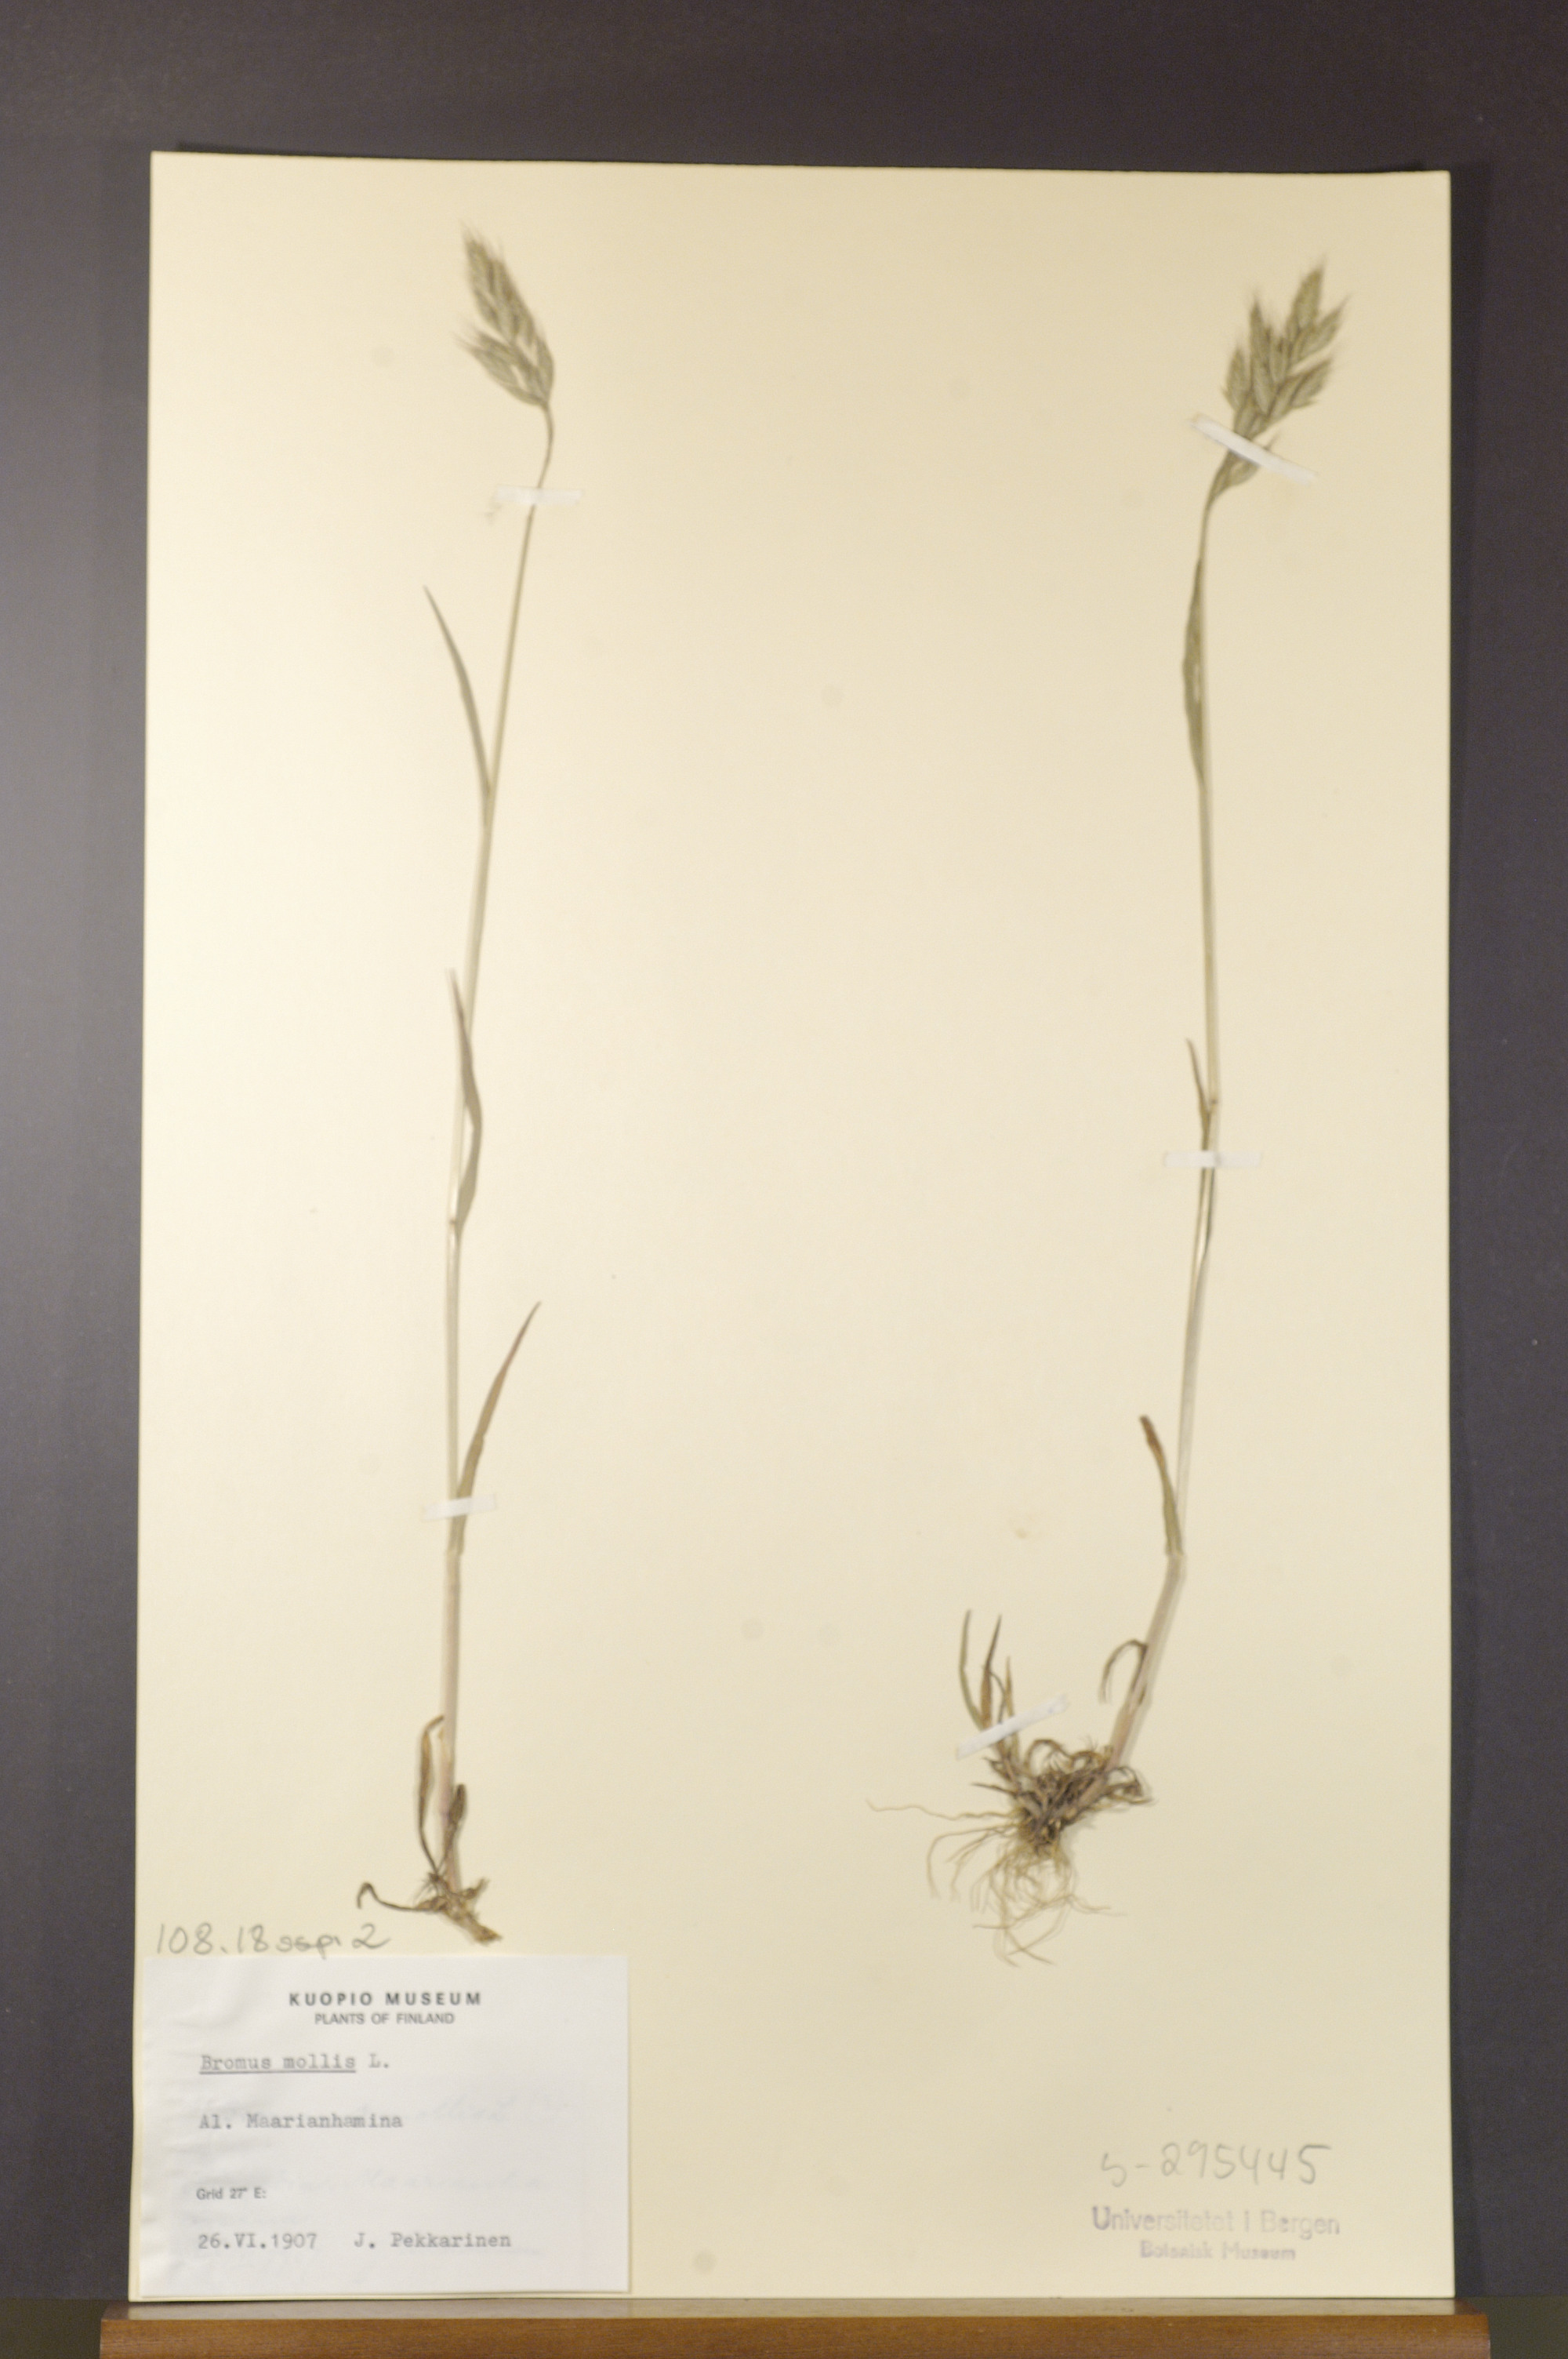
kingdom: Plantae
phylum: Tracheophyta
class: Liliopsida
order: Poales
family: Poaceae
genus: Bromus
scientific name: Bromus hordeaceus
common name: Soft brome
